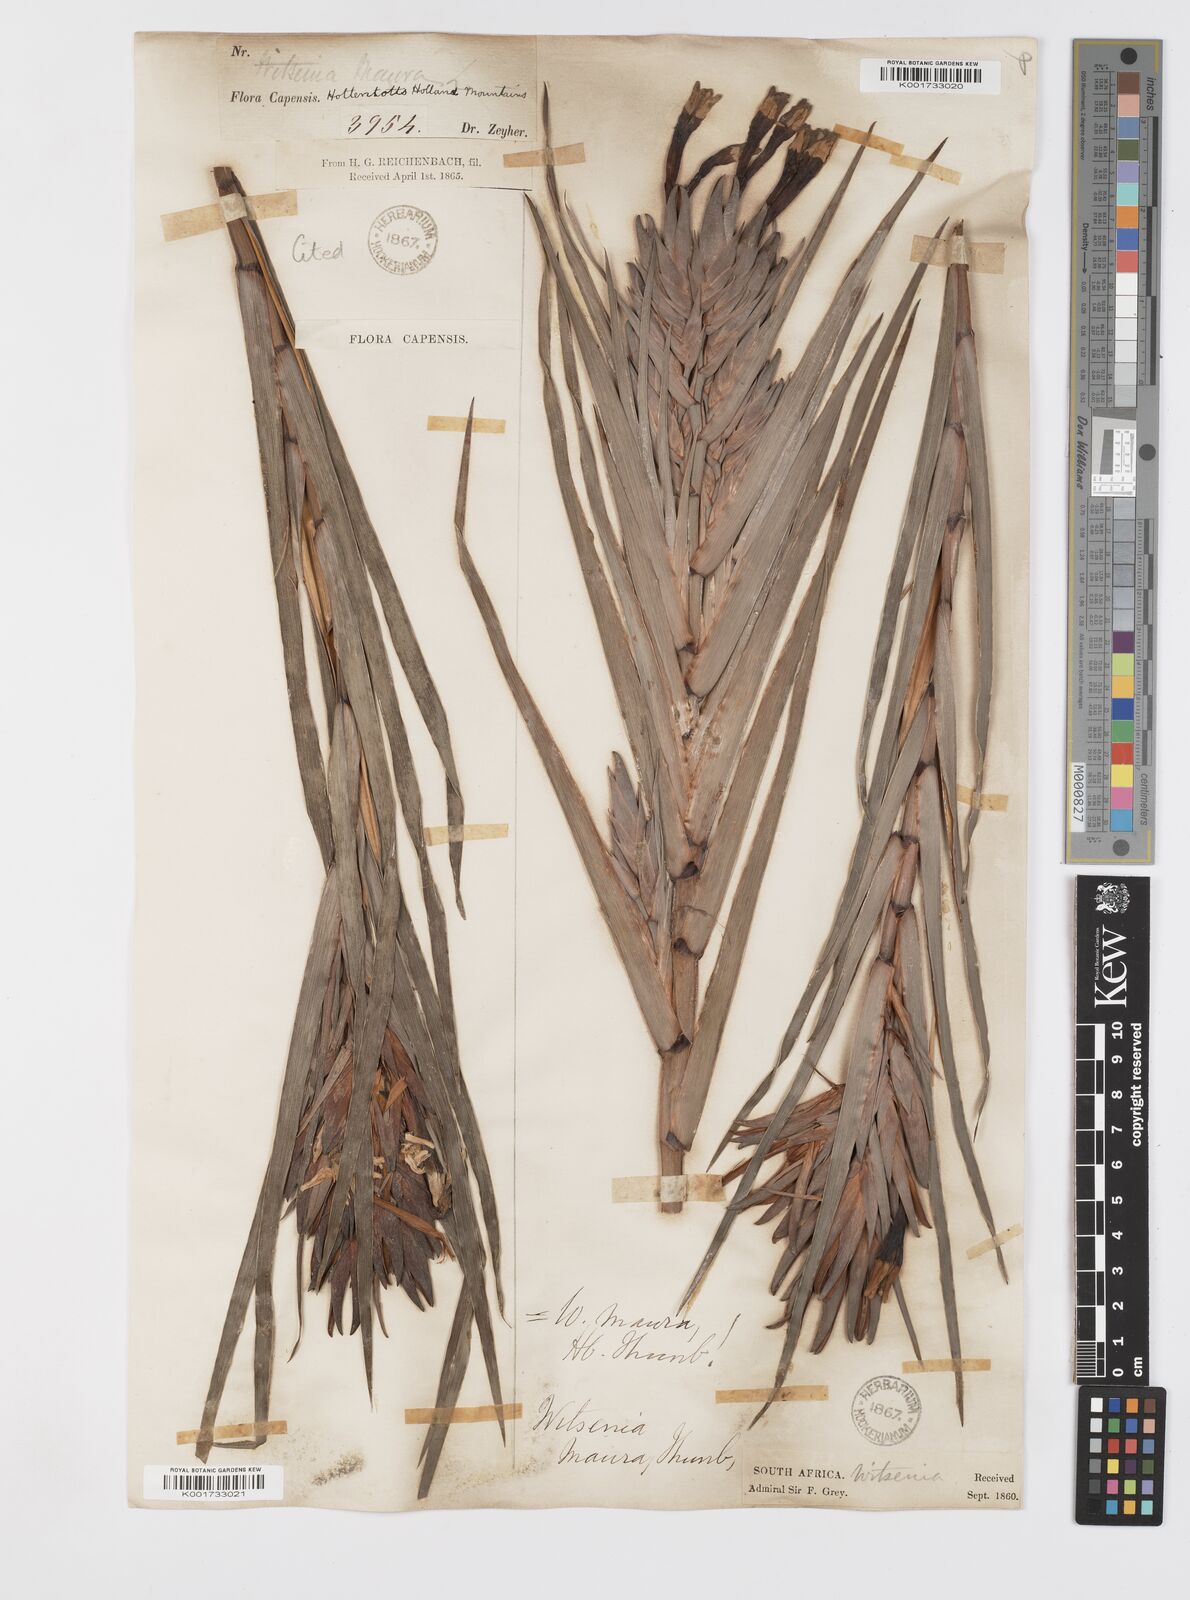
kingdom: Plantae
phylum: Tracheophyta
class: Liliopsida
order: Asparagales
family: Iridaceae
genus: Witsenia
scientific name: Witsenia maura
